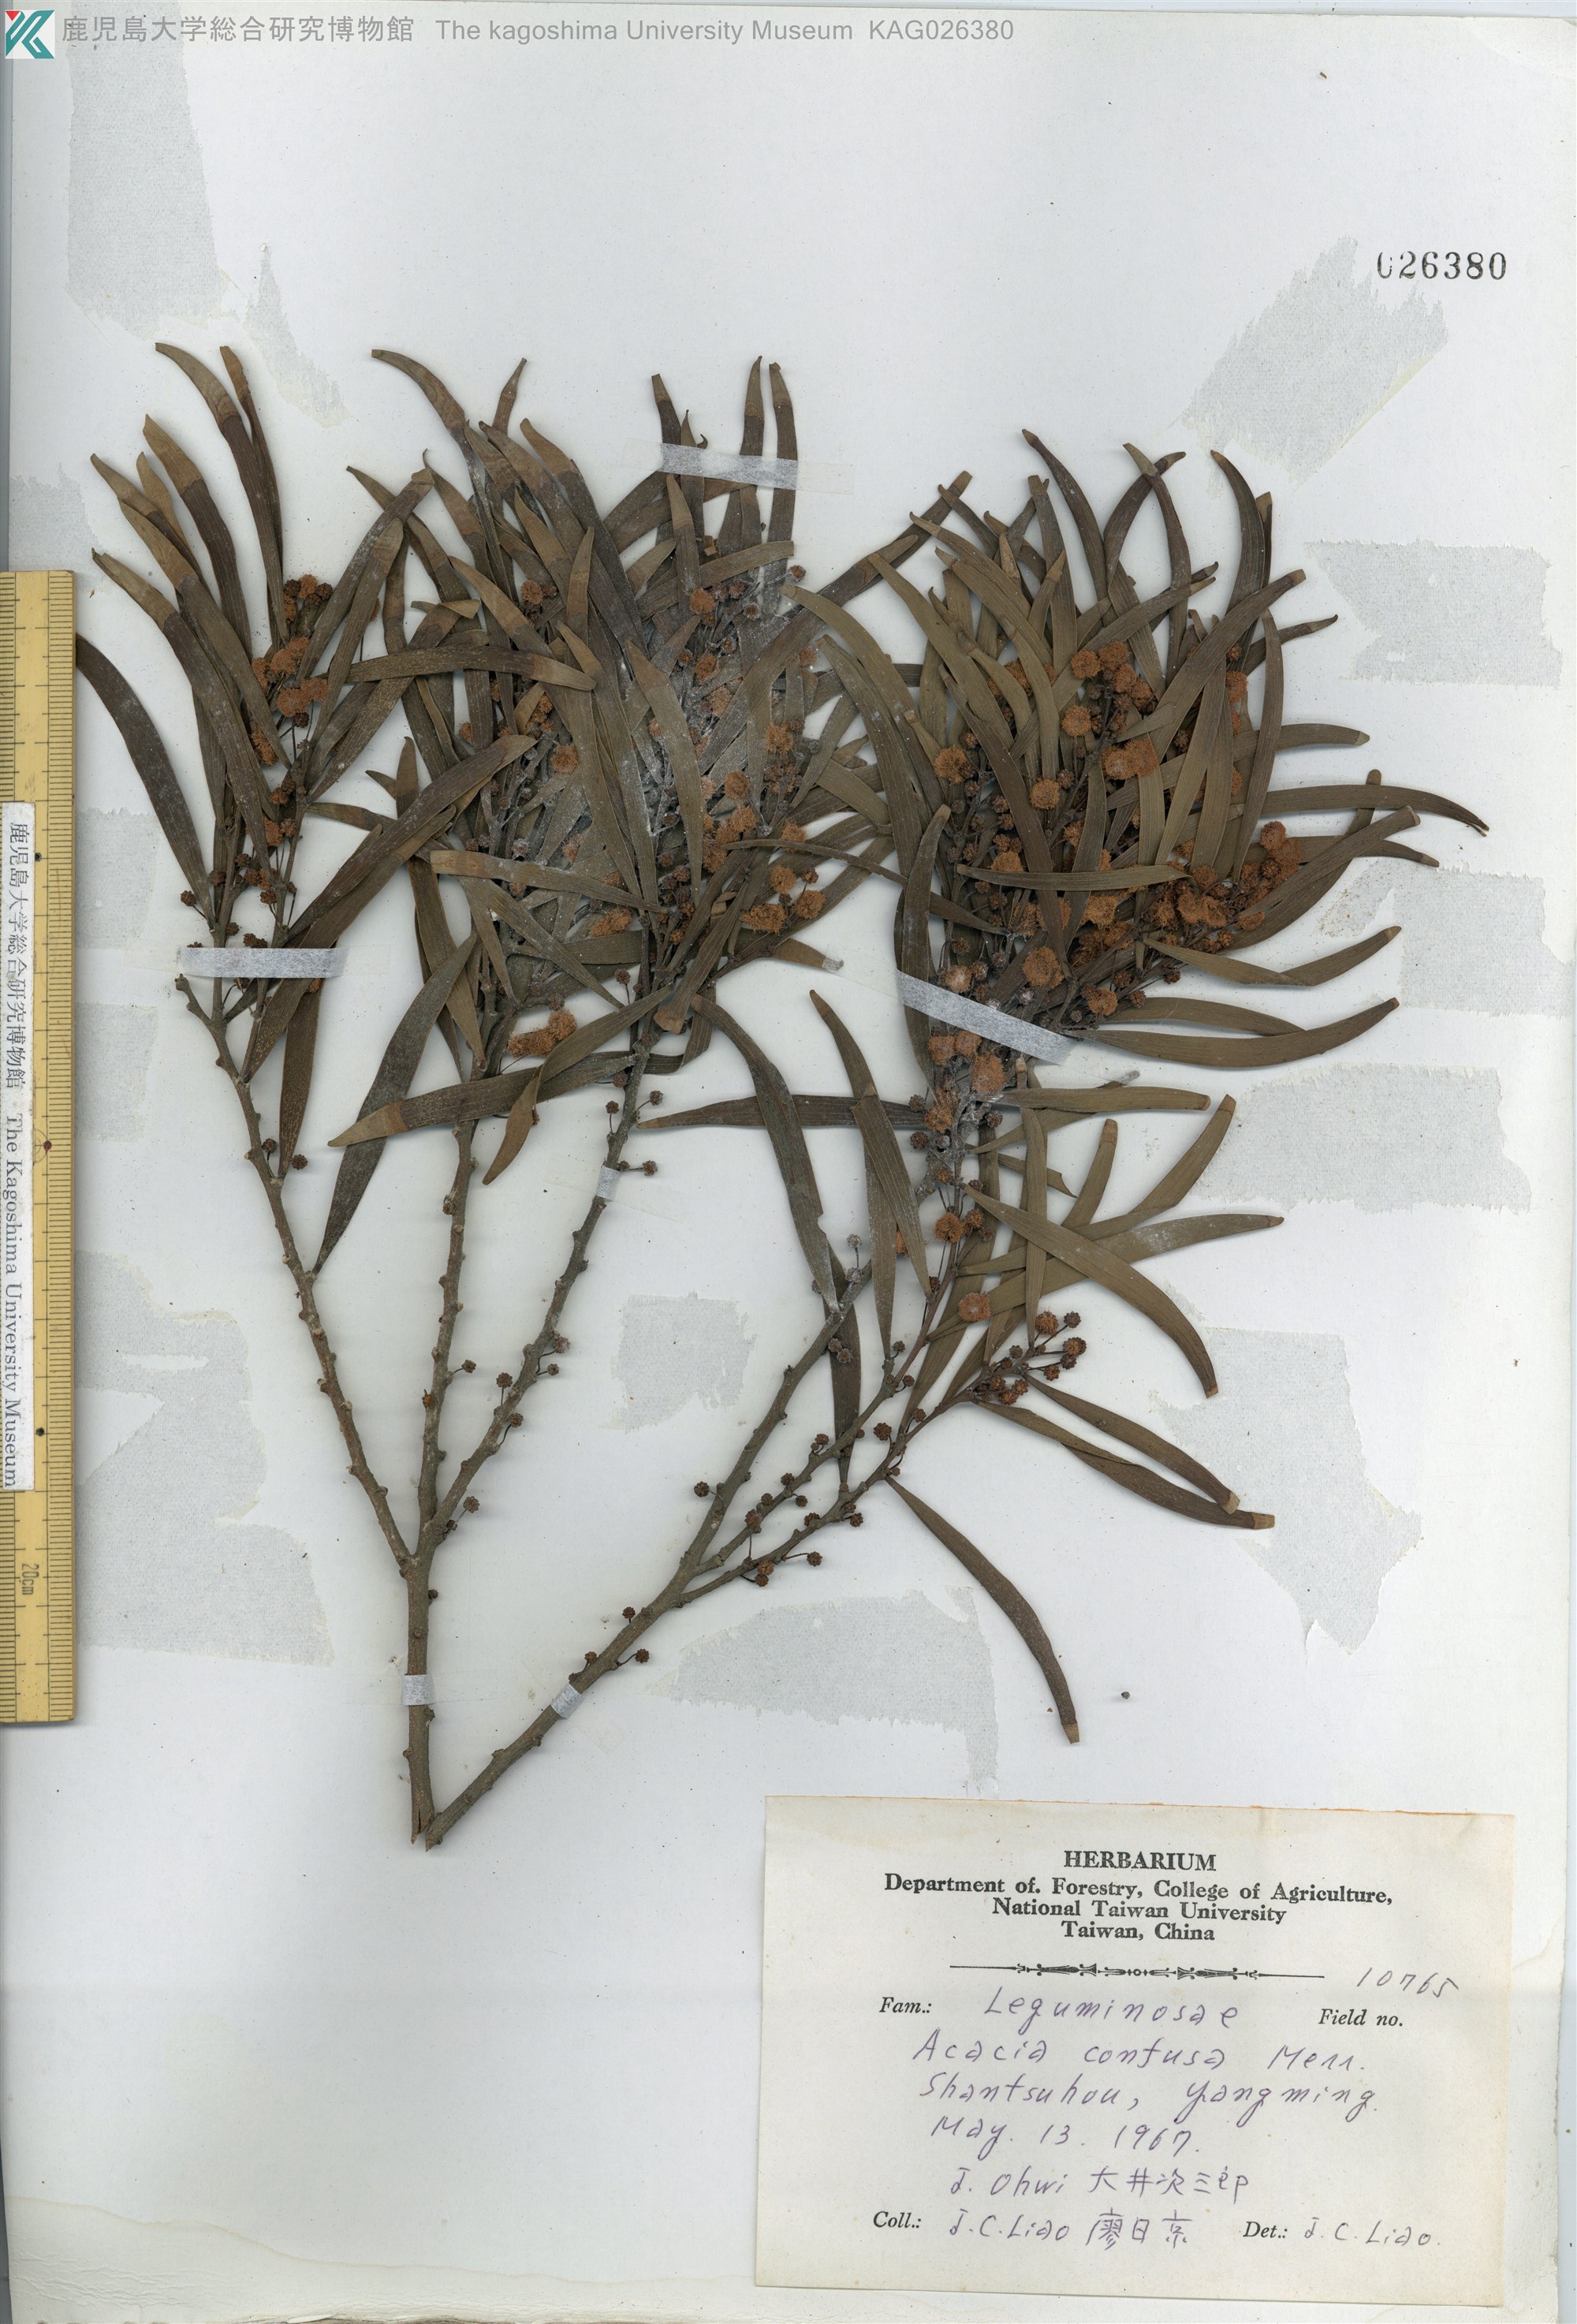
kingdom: Plantae
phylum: Tracheophyta
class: Magnoliopsida
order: Fabales
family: Fabaceae
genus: Acacia
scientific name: Acacia confusa
